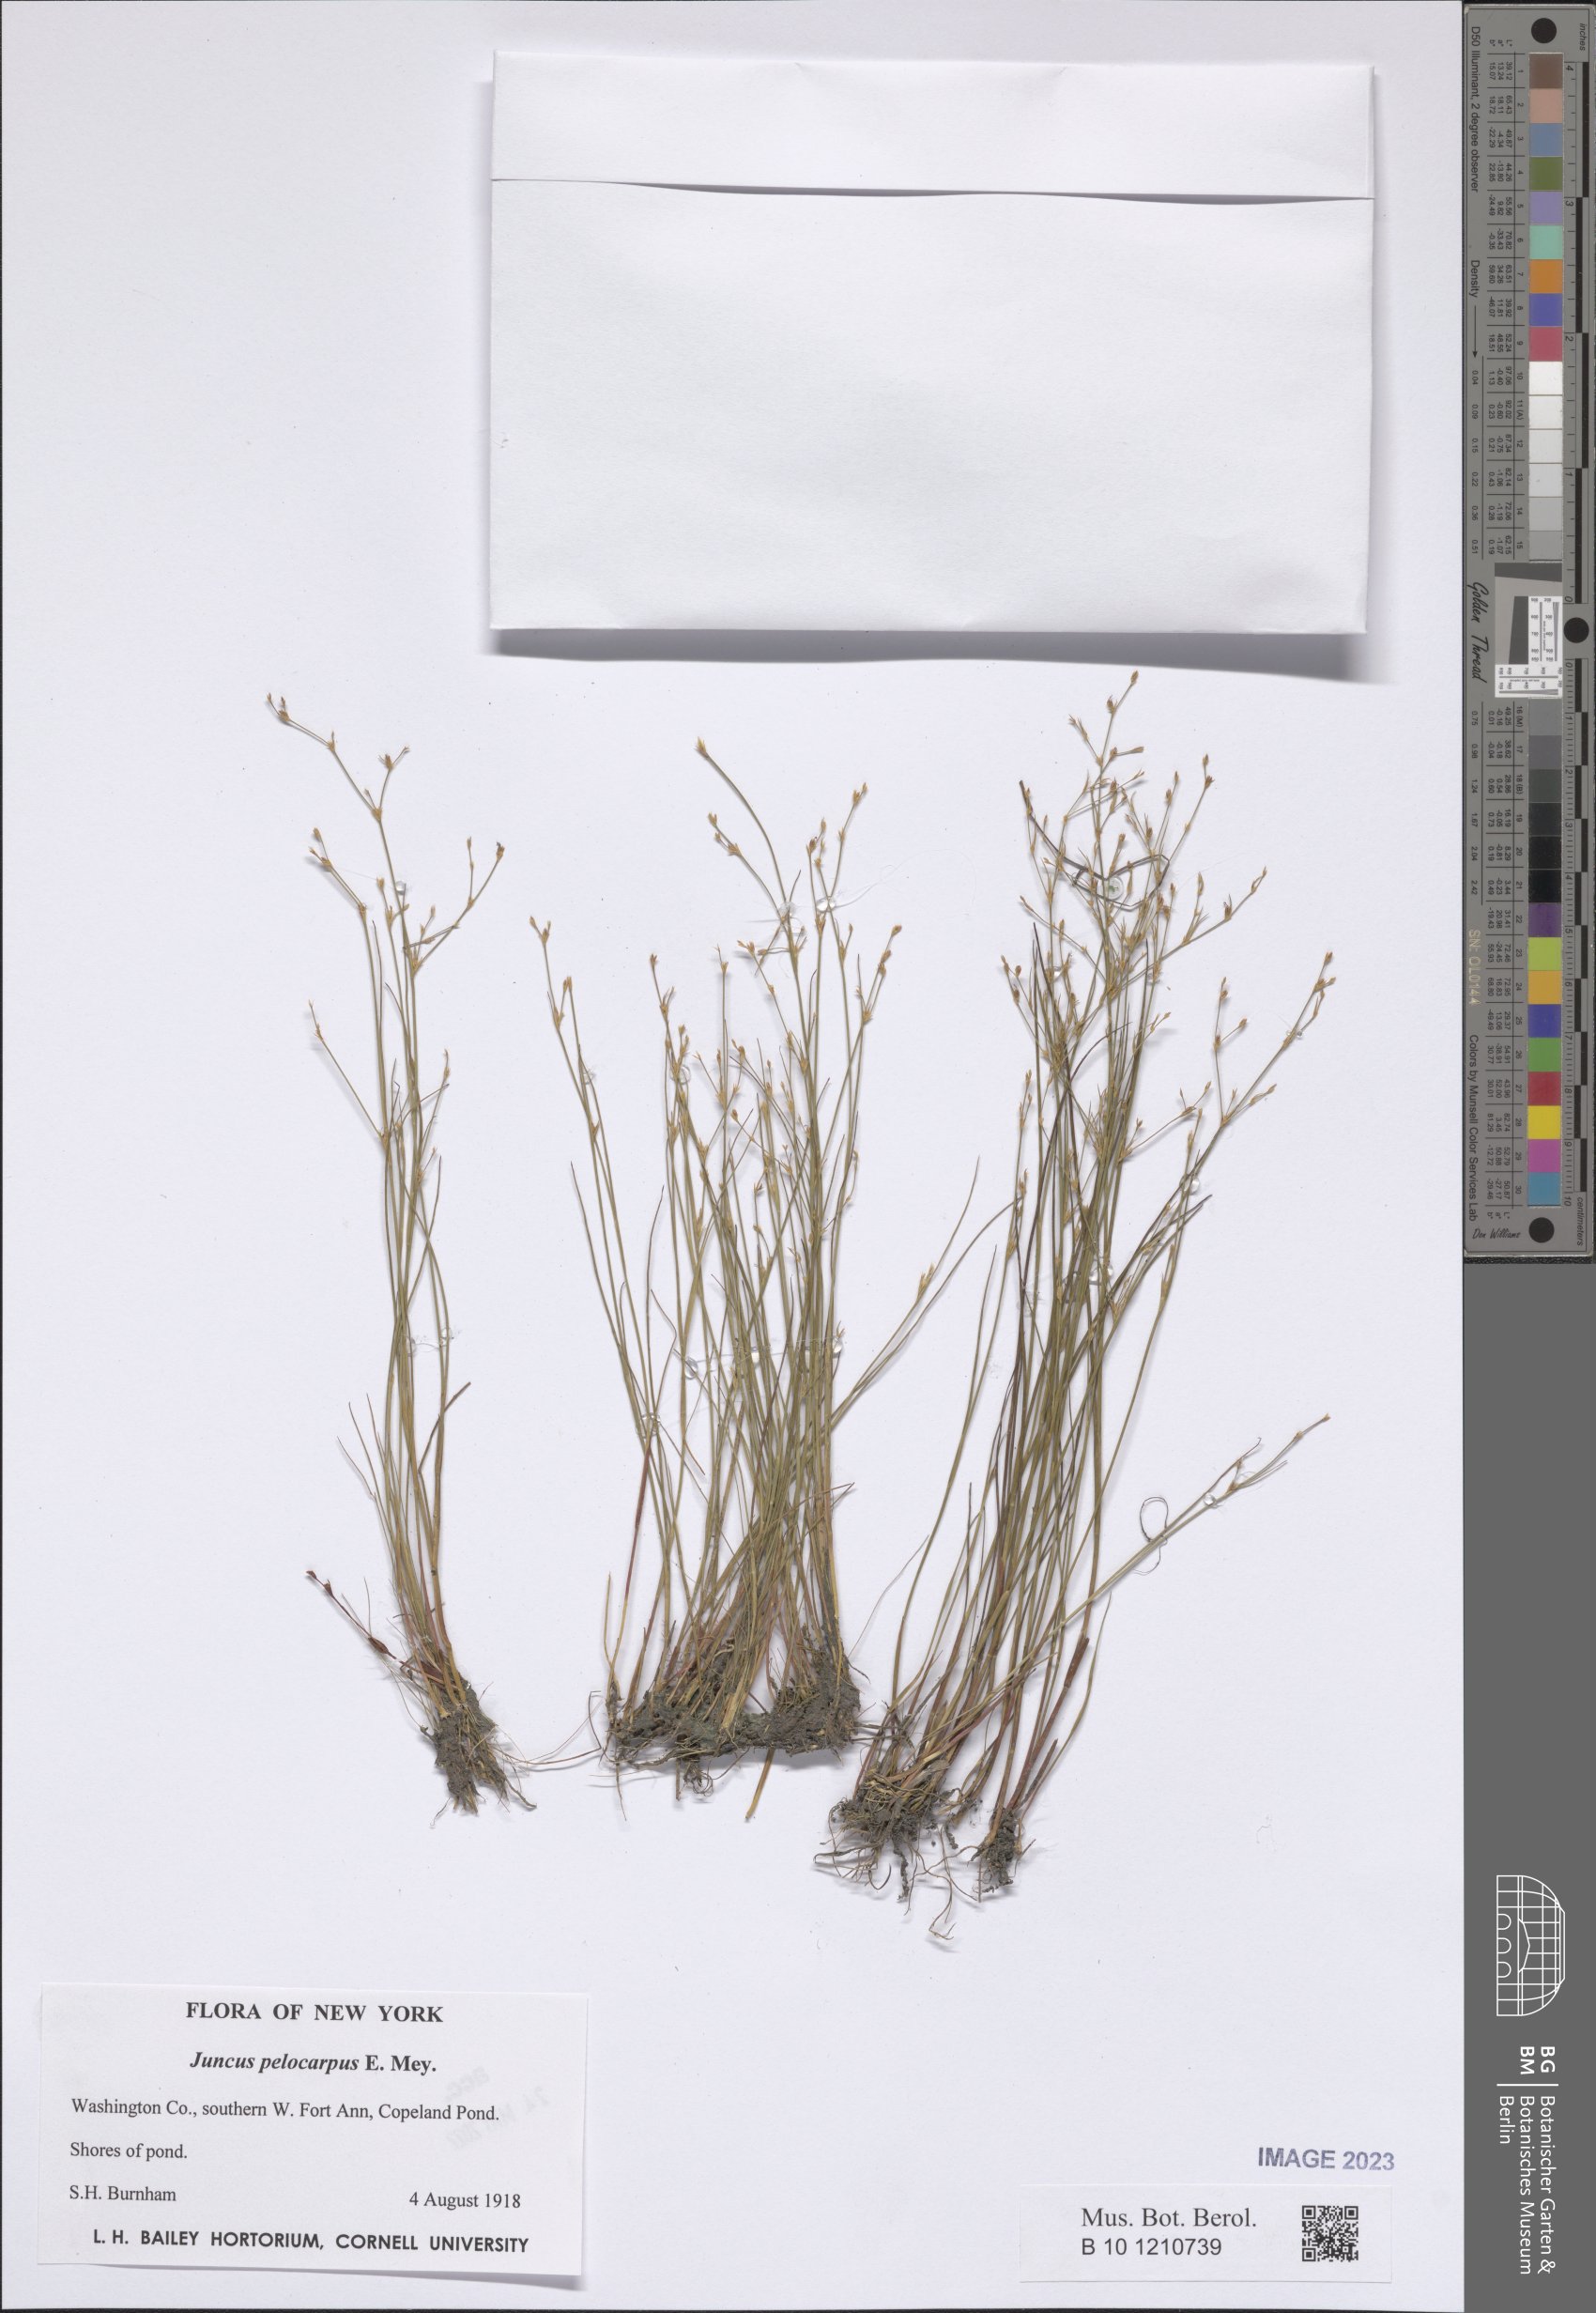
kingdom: Plantae
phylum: Tracheophyta
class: Liliopsida
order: Poales
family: Juncaceae
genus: Juncus
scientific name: Juncus pelocarpus
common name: Brown-fruited rush
